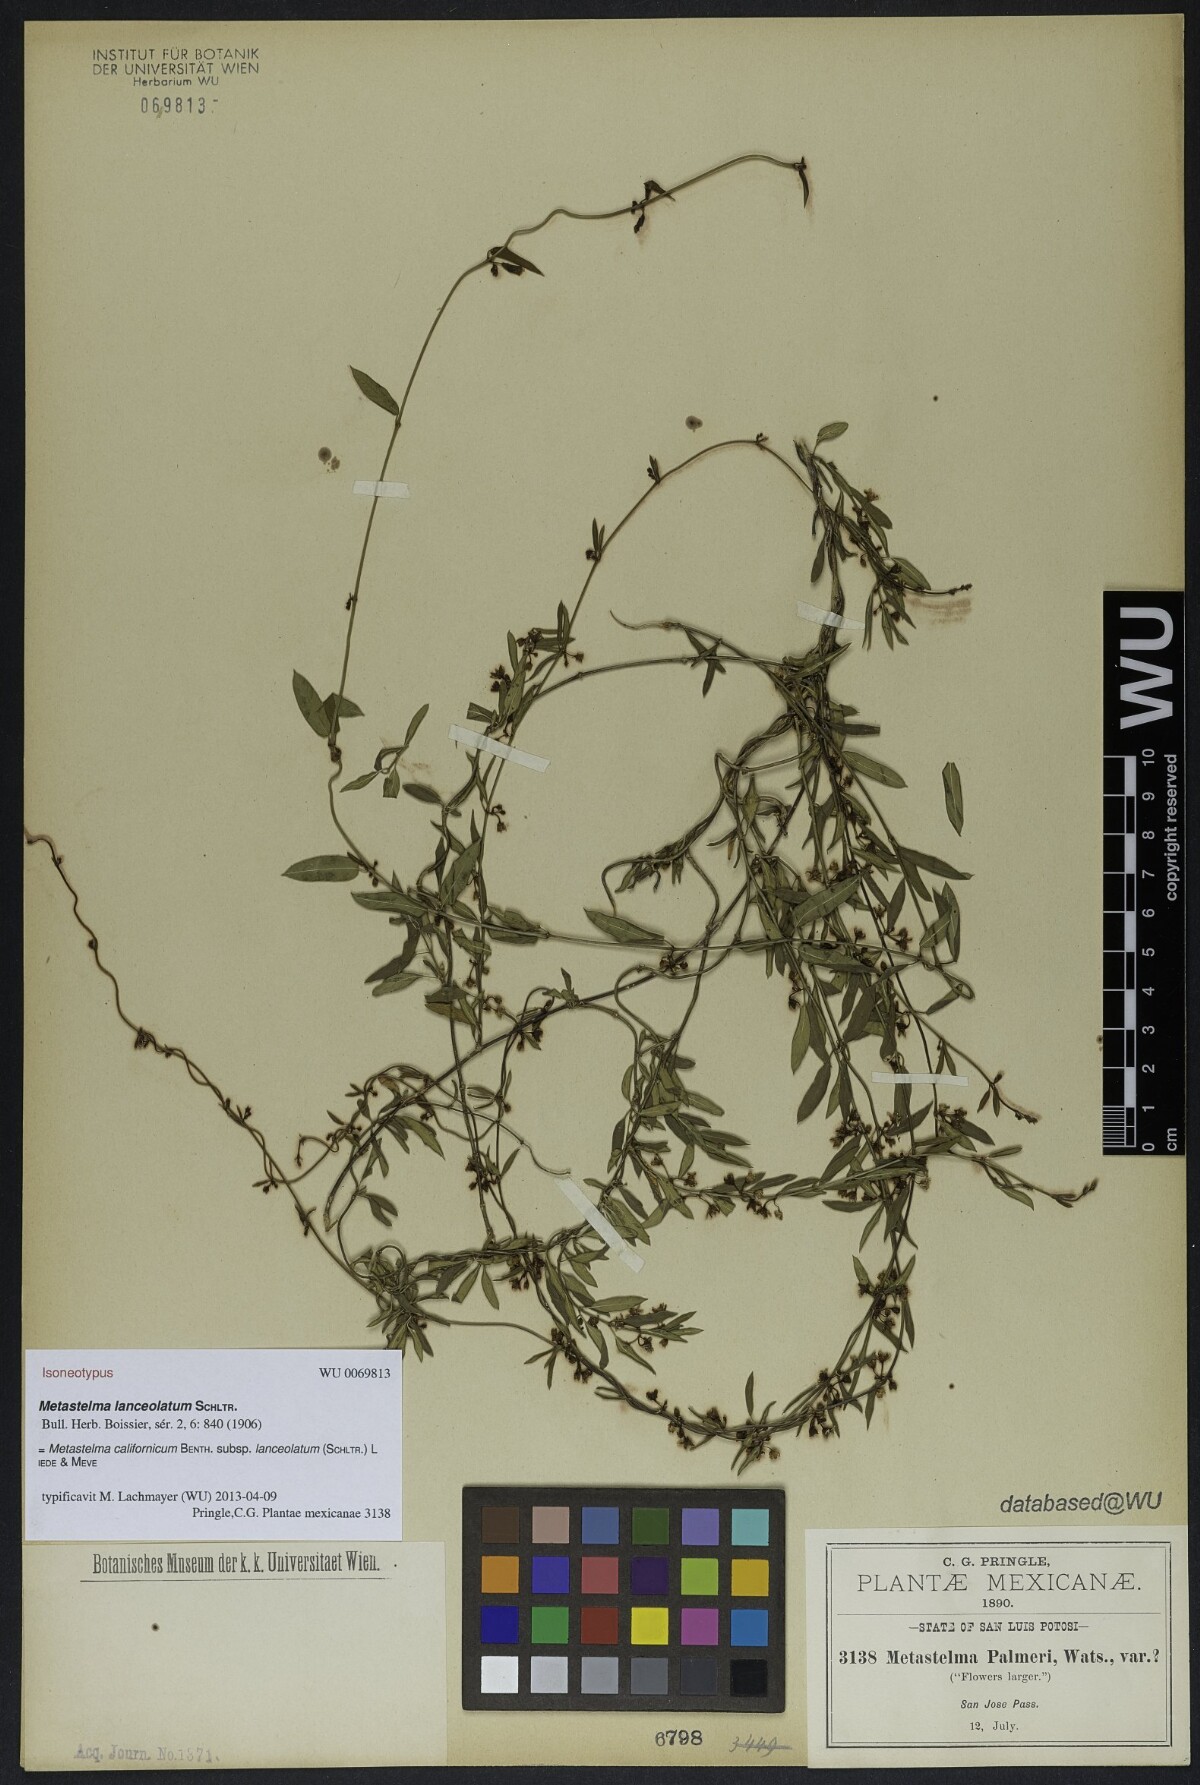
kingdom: Plantae
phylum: Tracheophyta
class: Magnoliopsida
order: Gentianales
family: Apocynaceae
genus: Metastelma
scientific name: Metastelma californicum
